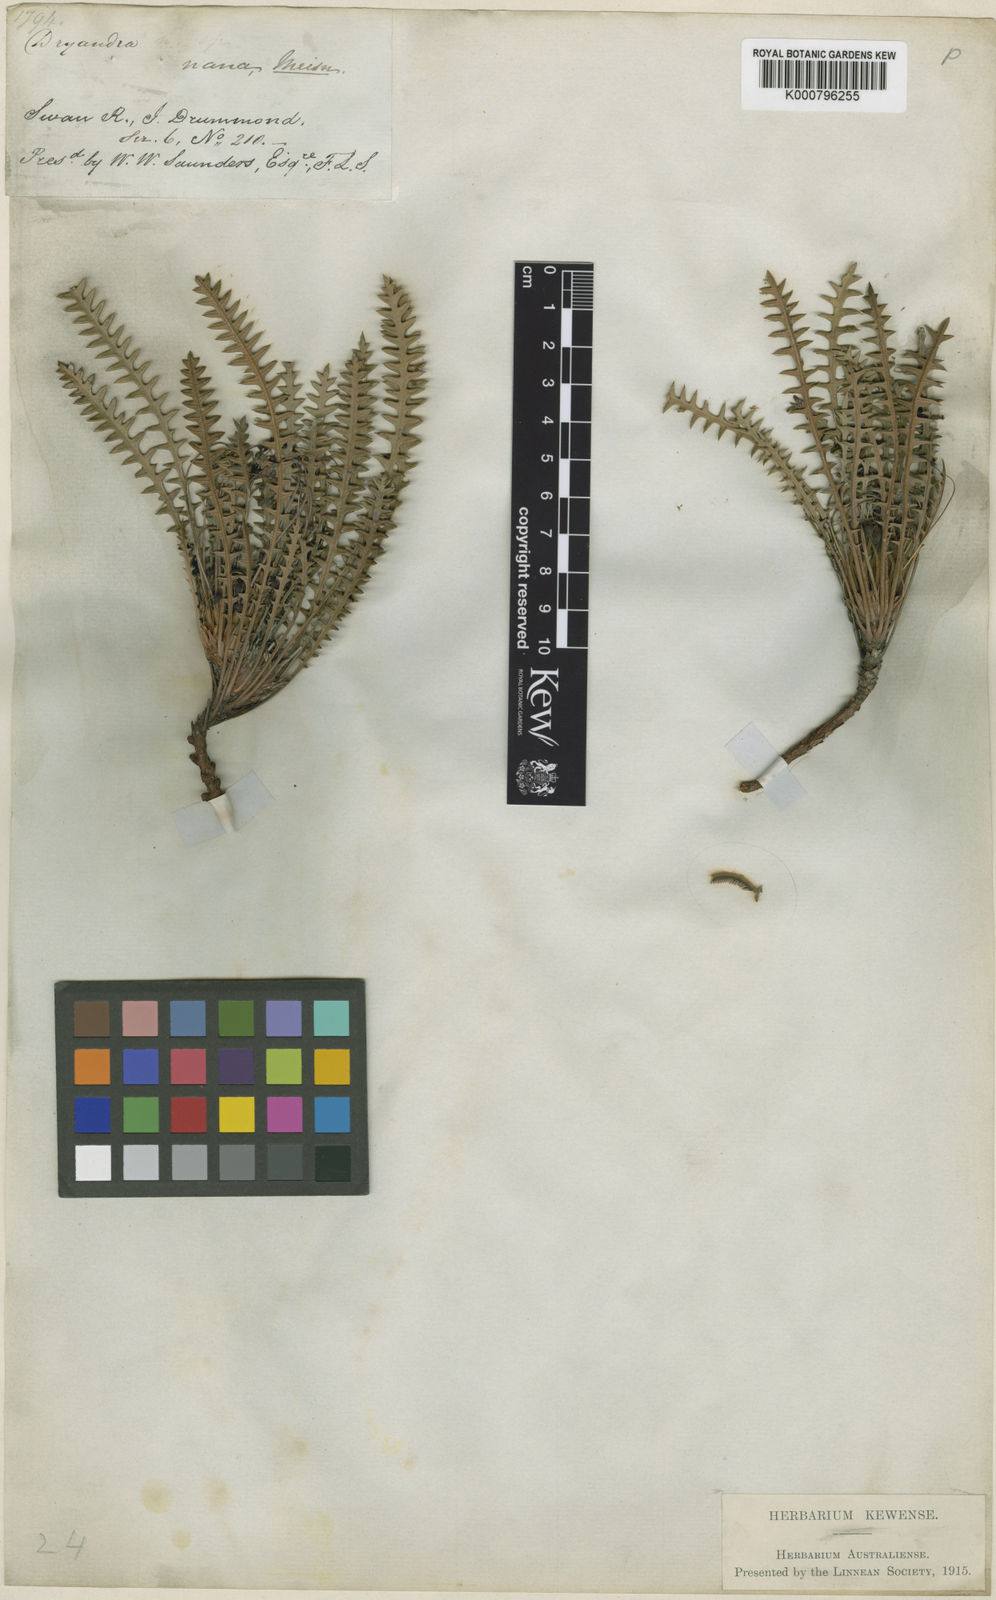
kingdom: Plantae
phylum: Tracheophyta
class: Magnoliopsida
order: Proteales
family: Proteaceae
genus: Banksia
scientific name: Banksia nana
